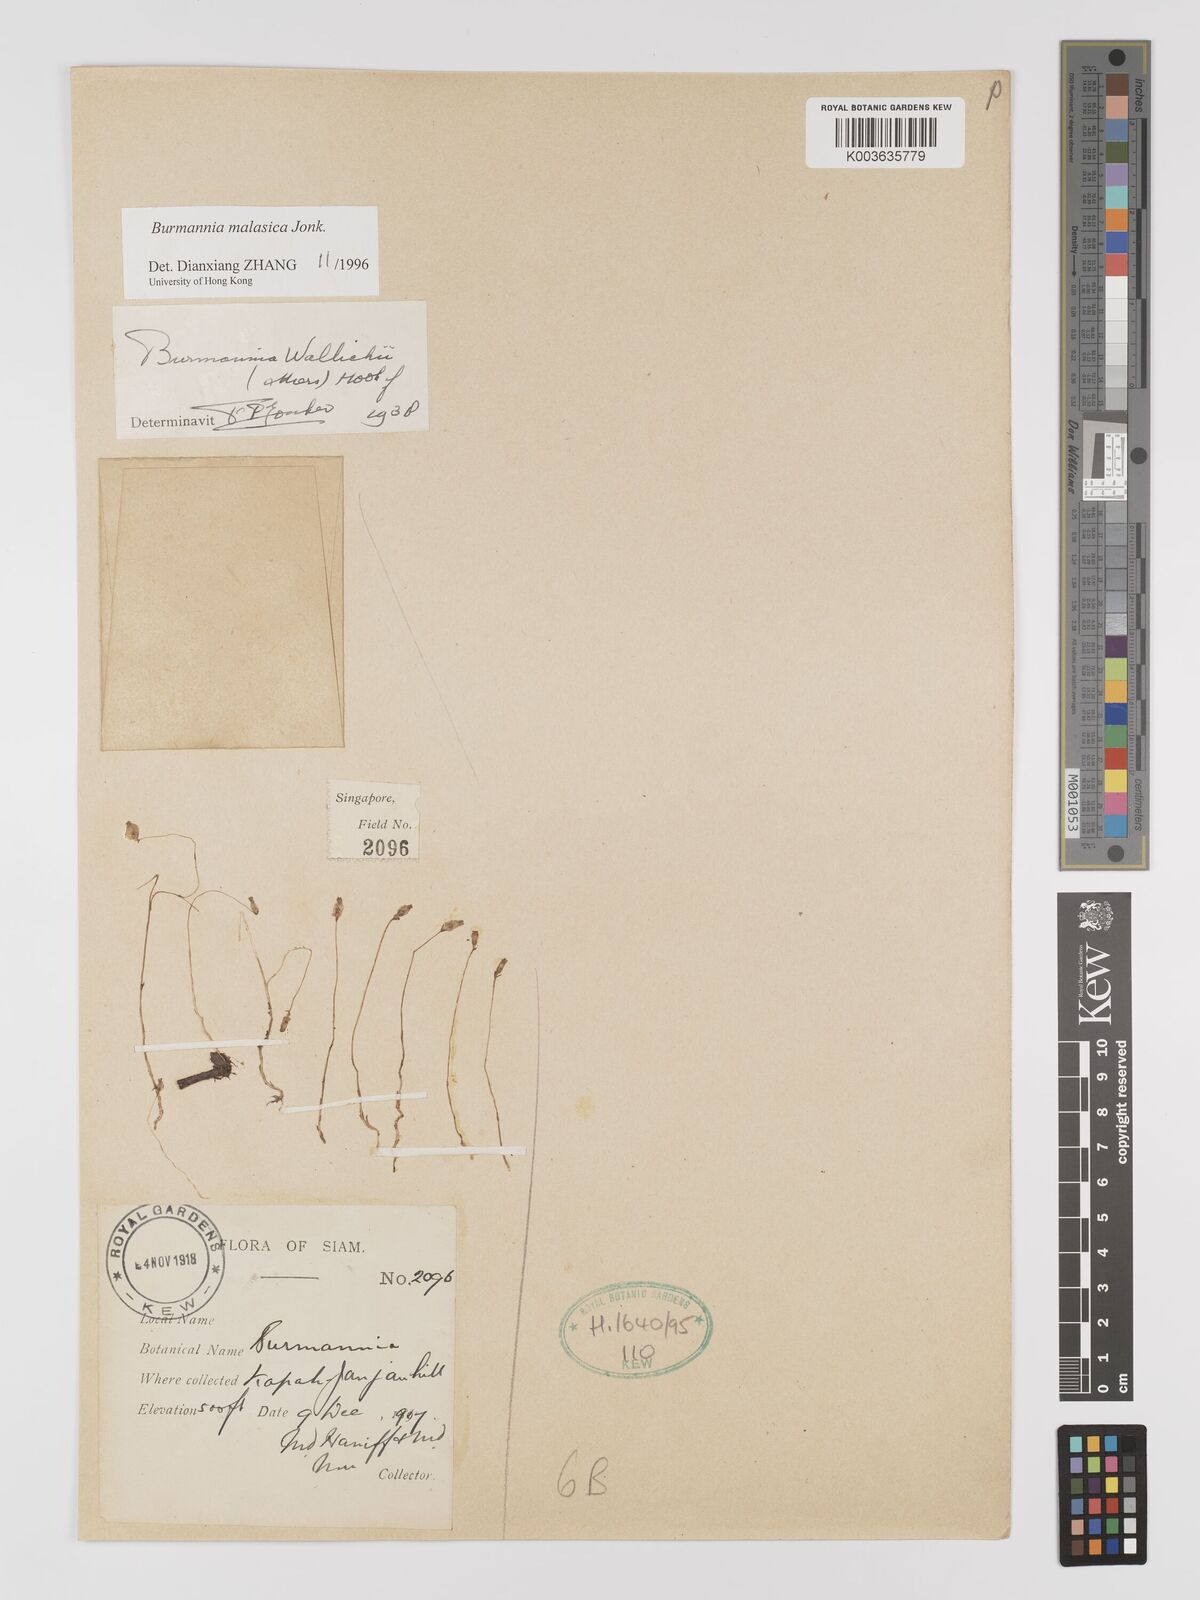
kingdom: Plantae
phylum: Tracheophyta
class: Liliopsida
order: Dioscoreales
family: Burmanniaceae
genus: Burmannia
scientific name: Burmannia malasica
